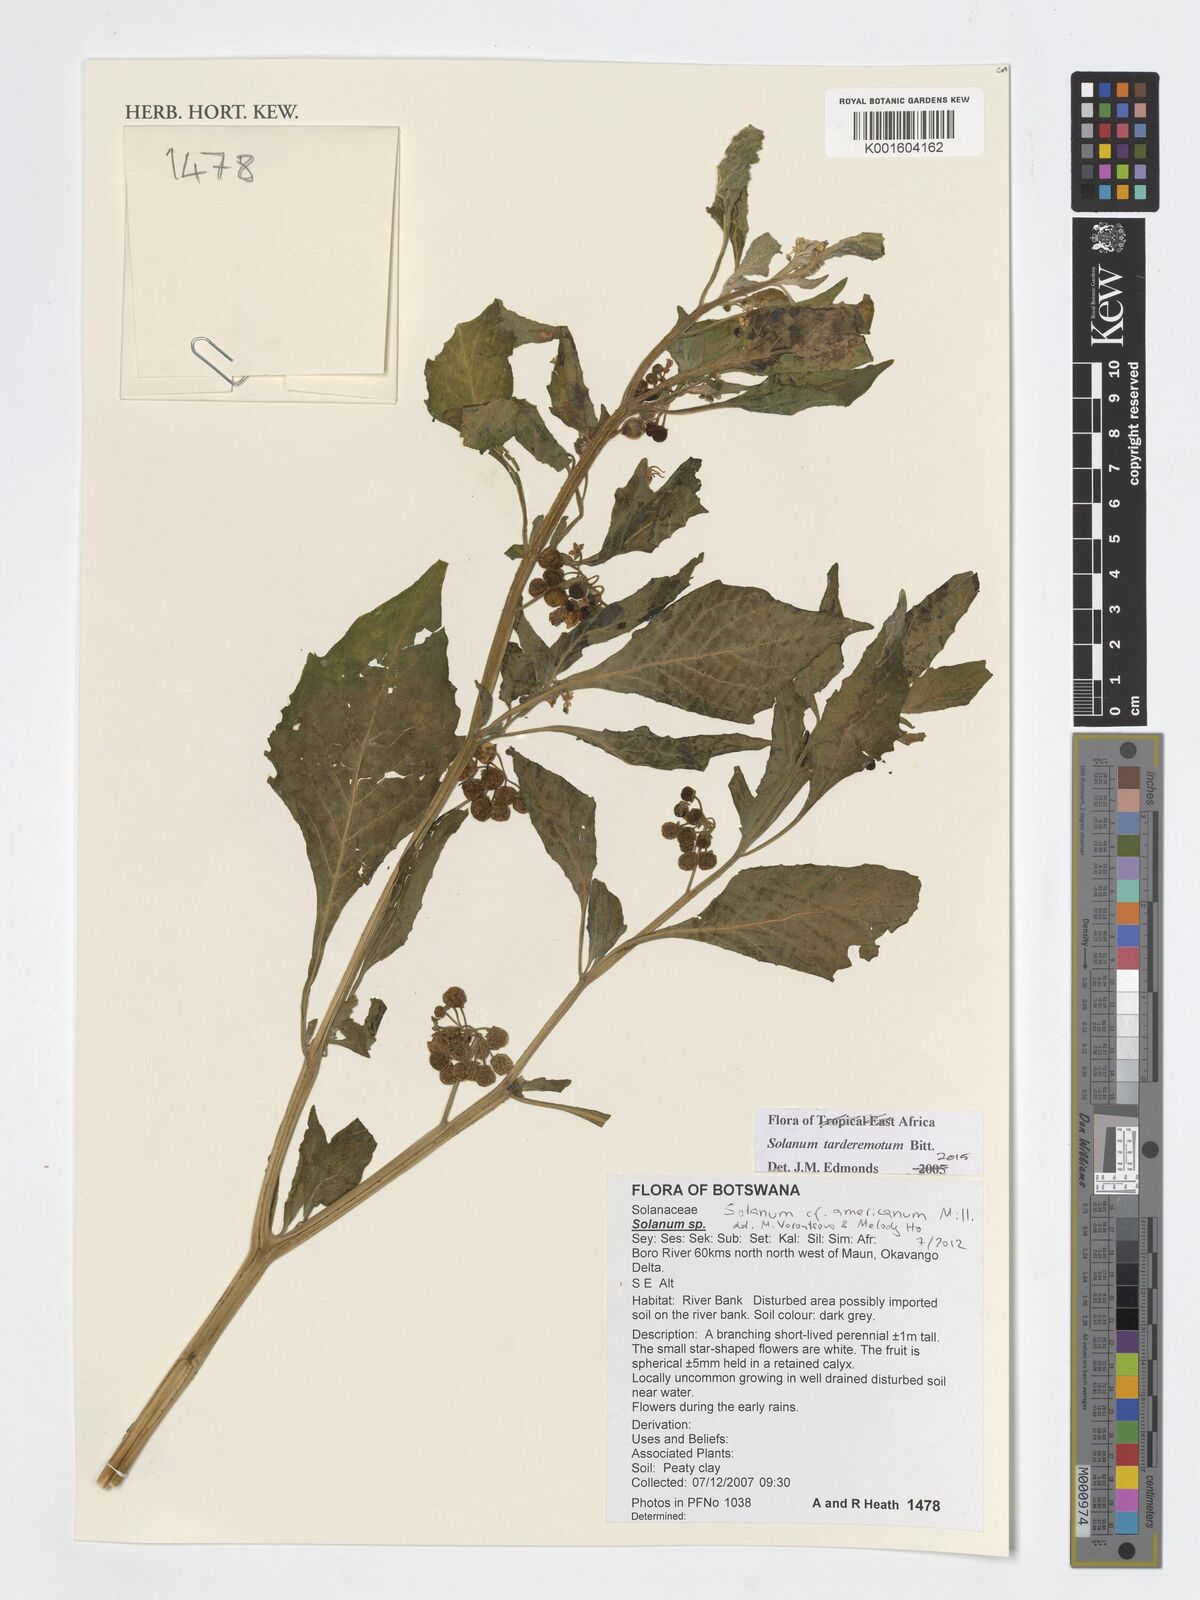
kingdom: Plantae
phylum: Tracheophyta
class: Magnoliopsida
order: Solanales
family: Solanaceae
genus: Solanum
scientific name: Solanum tarderemotum
